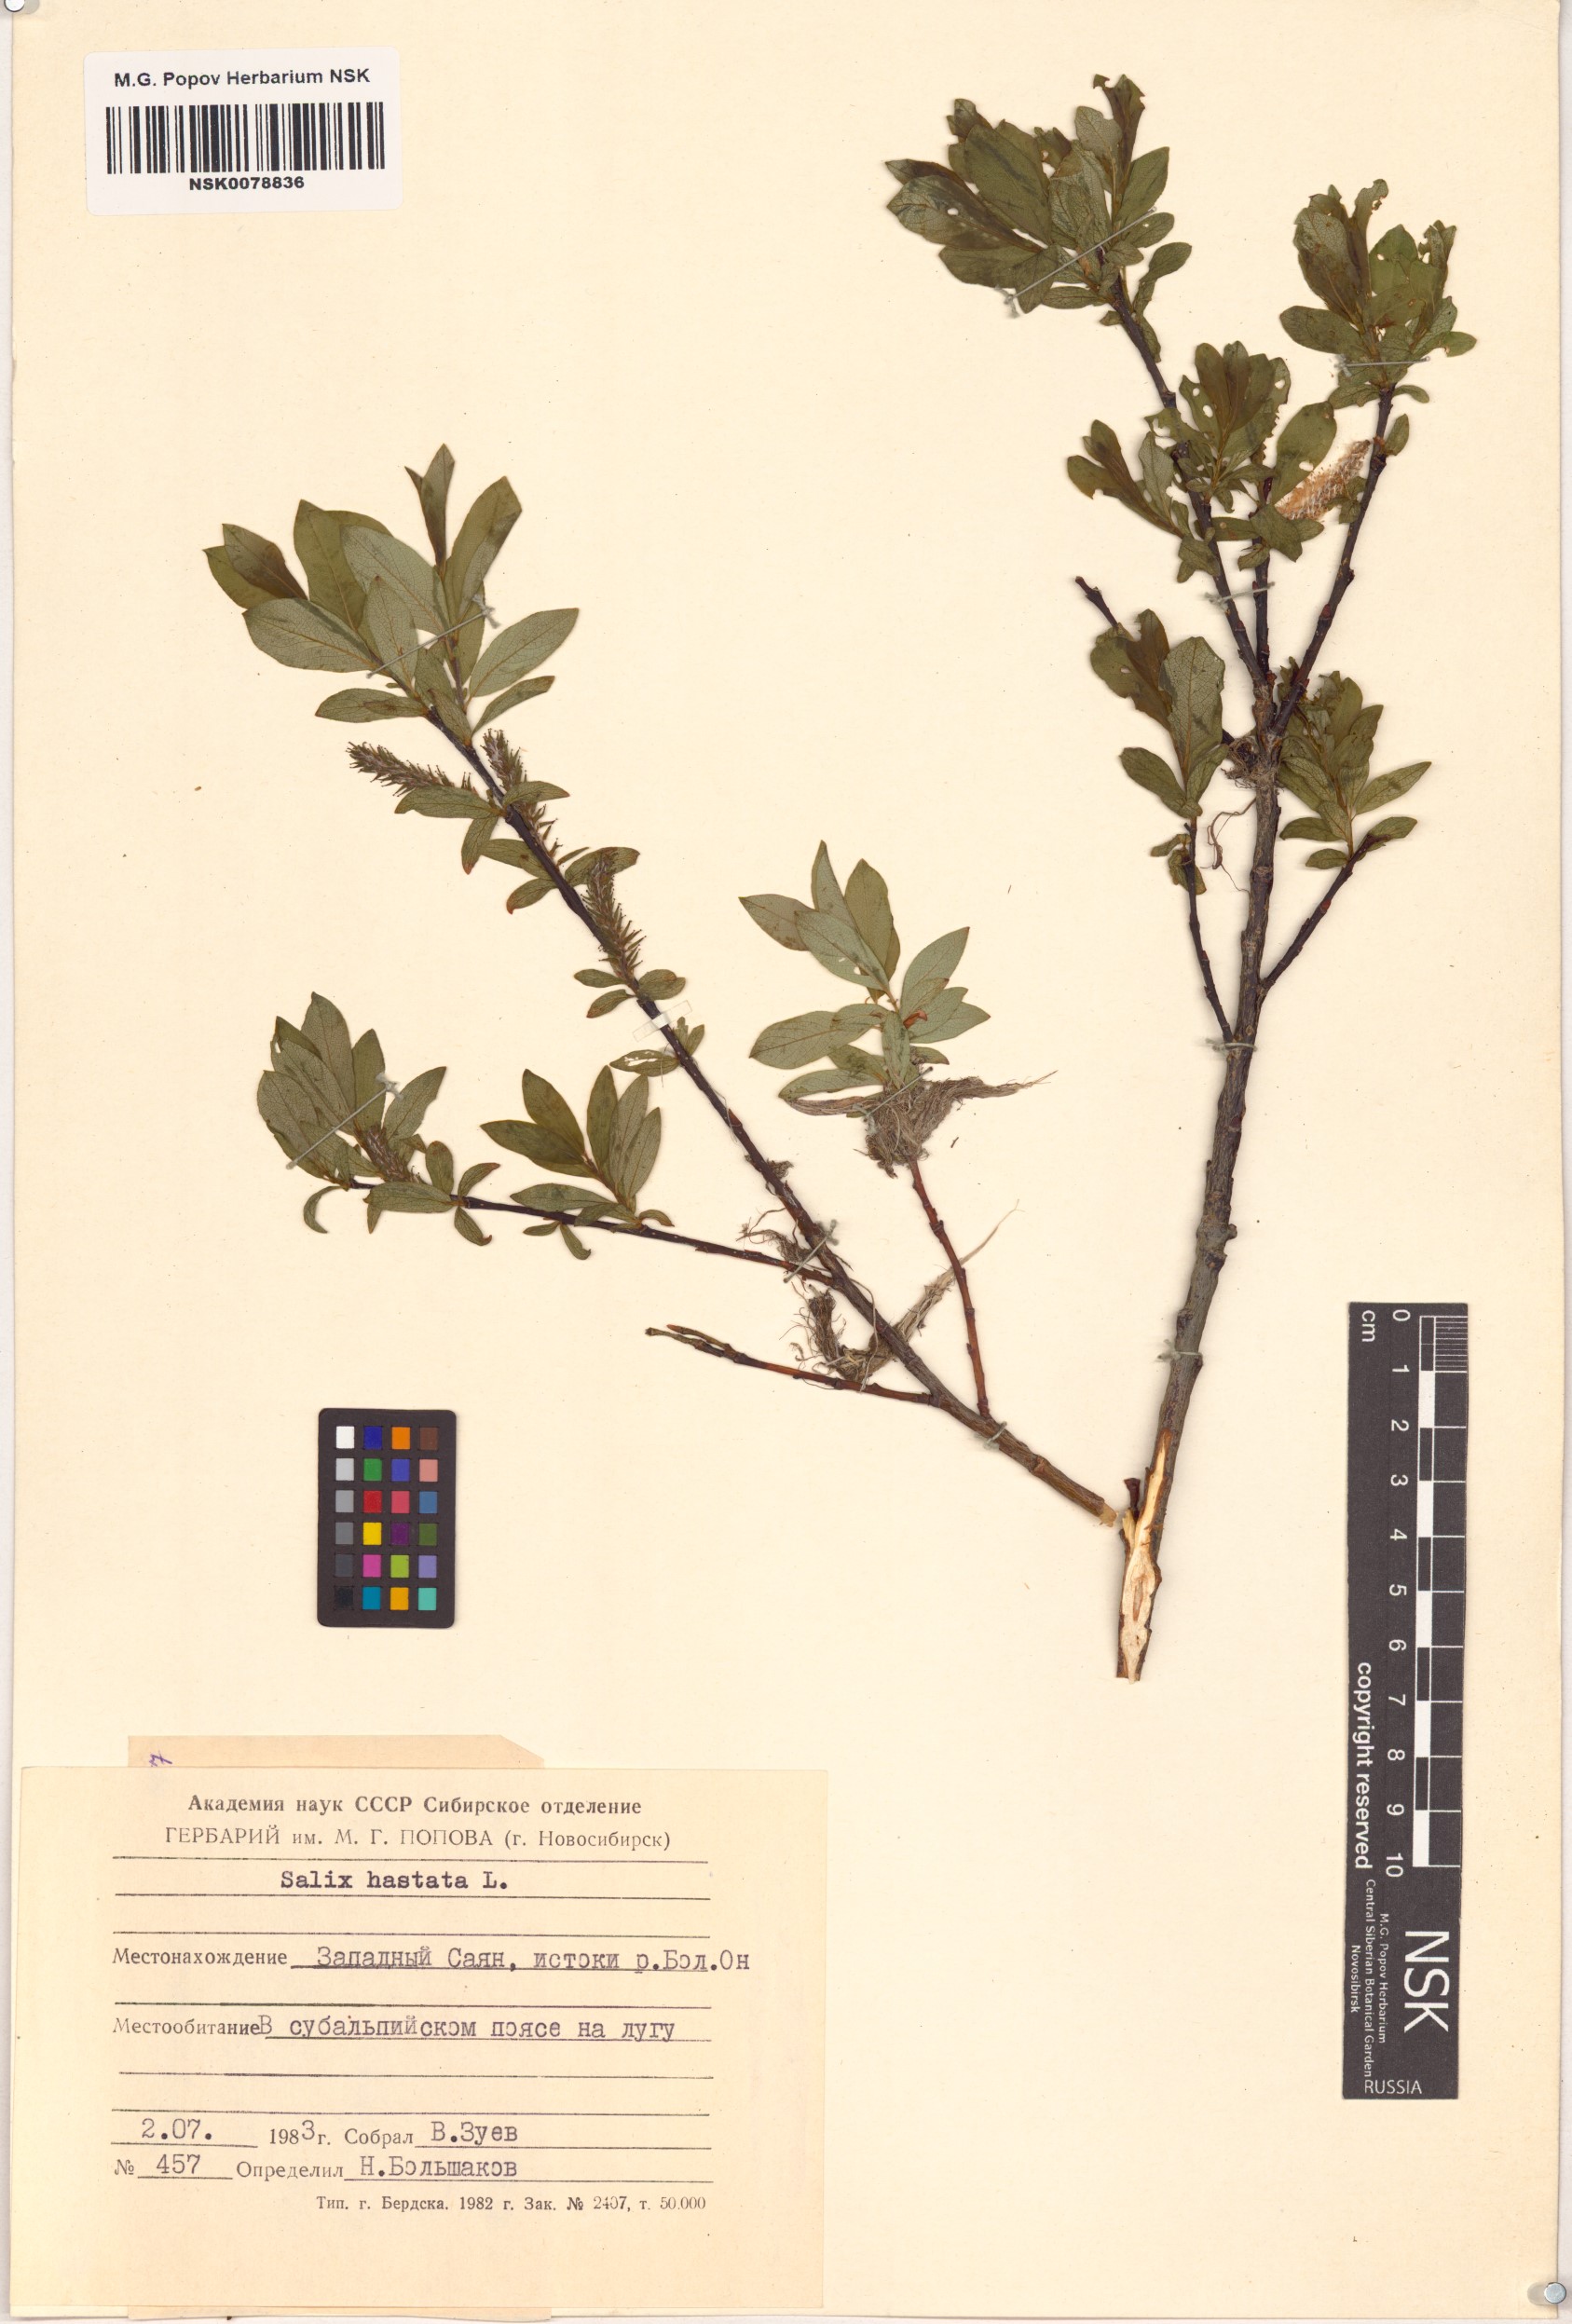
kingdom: Plantae
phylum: Tracheophyta
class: Magnoliopsida
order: Malpighiales
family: Salicaceae
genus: Salix
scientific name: Salix hastata
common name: Halberd willow
